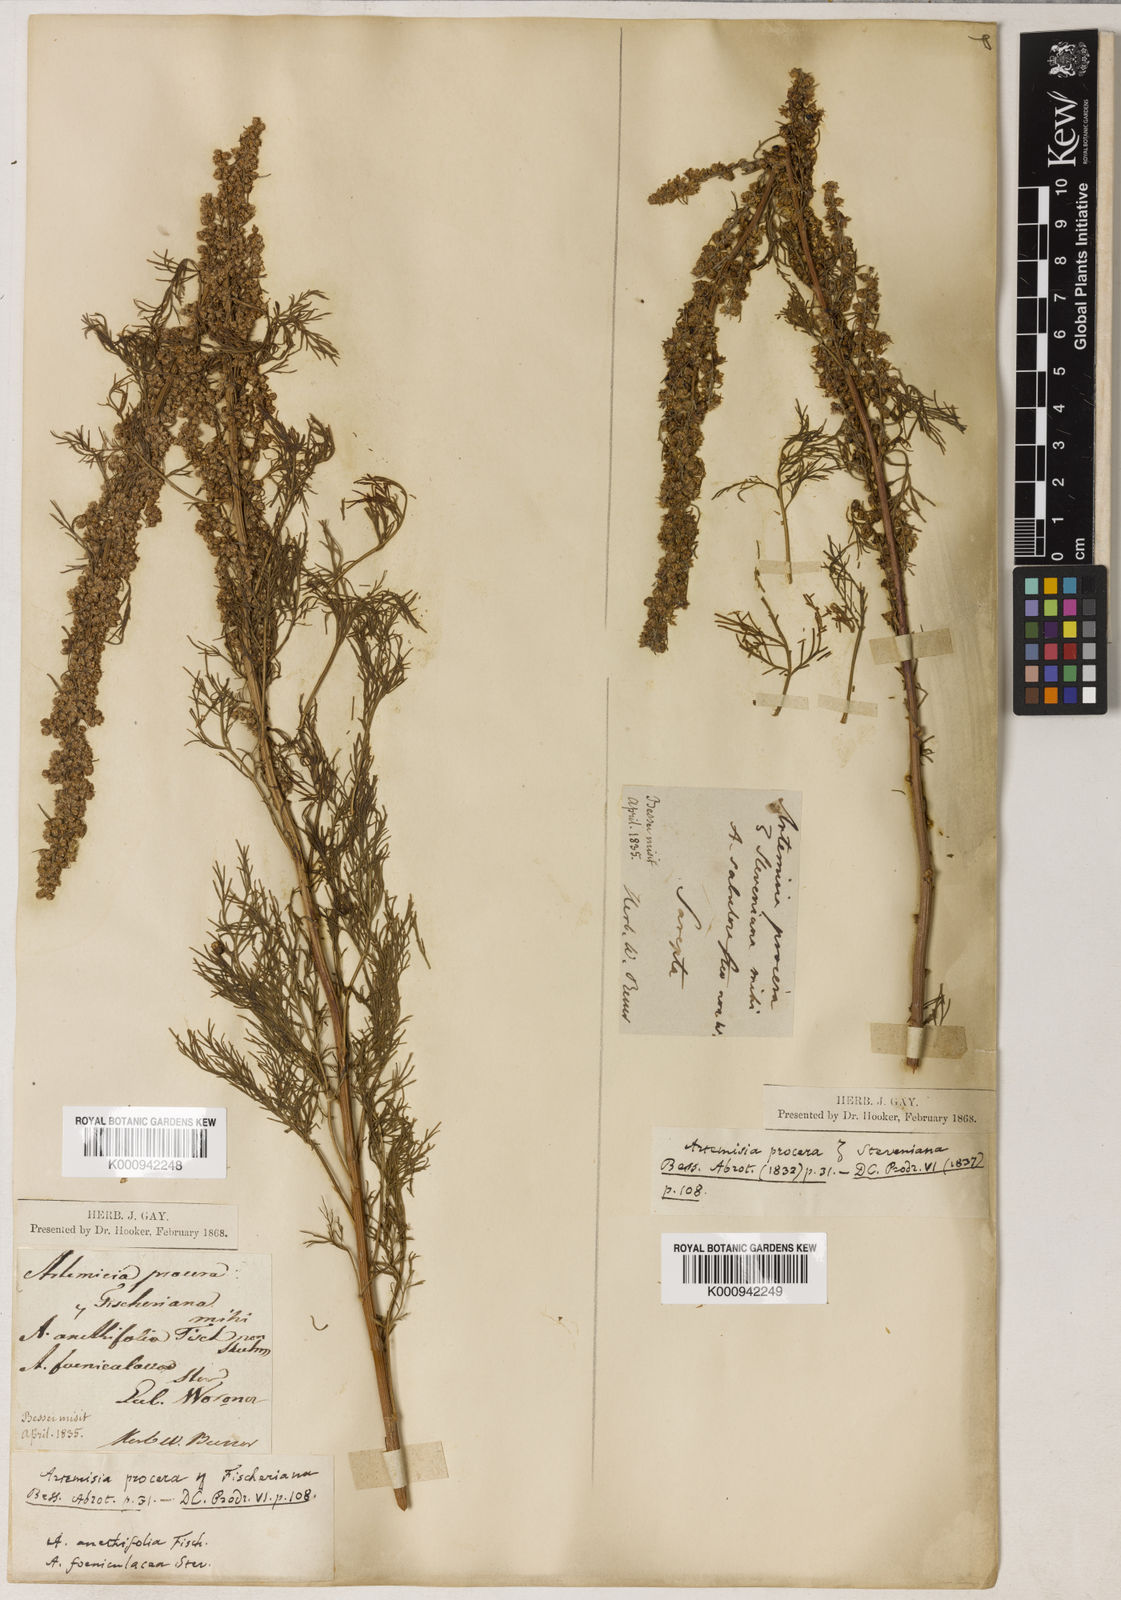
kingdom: Plantae
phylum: Tracheophyta
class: Magnoliopsida
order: Asterales
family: Asteraceae
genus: Artemisia
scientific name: Artemisia
